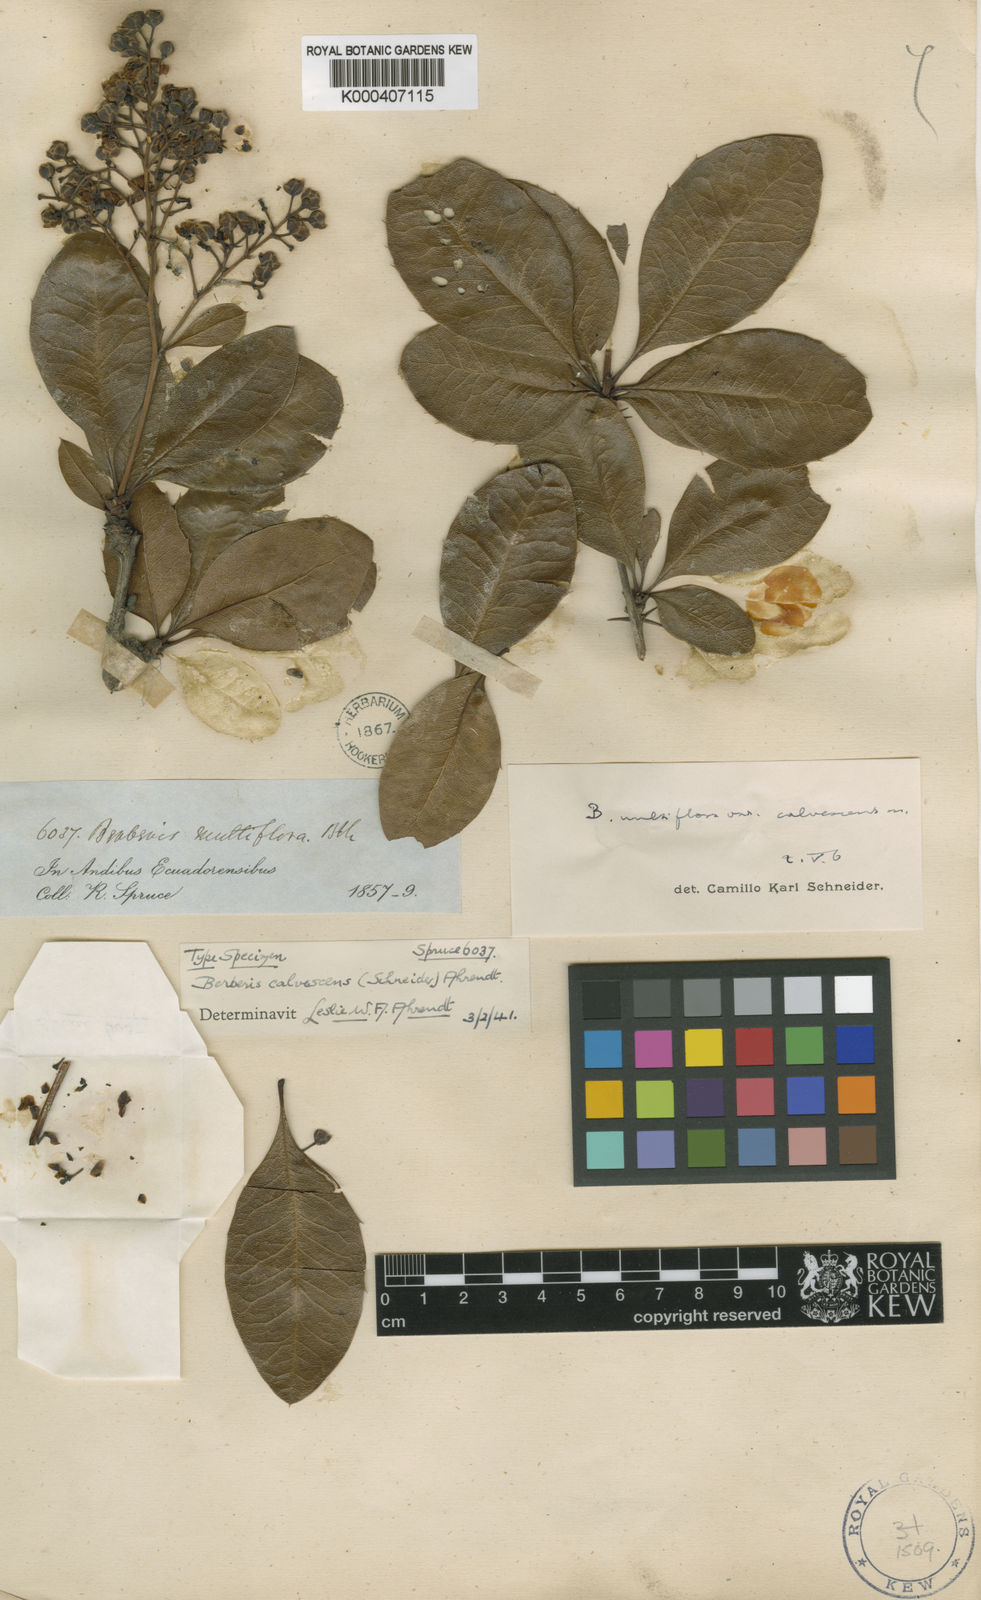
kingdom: Plantae
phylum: Tracheophyta
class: Magnoliopsida
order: Ranunculales
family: Berberidaceae
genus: Berberis
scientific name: Berberis multiflora
